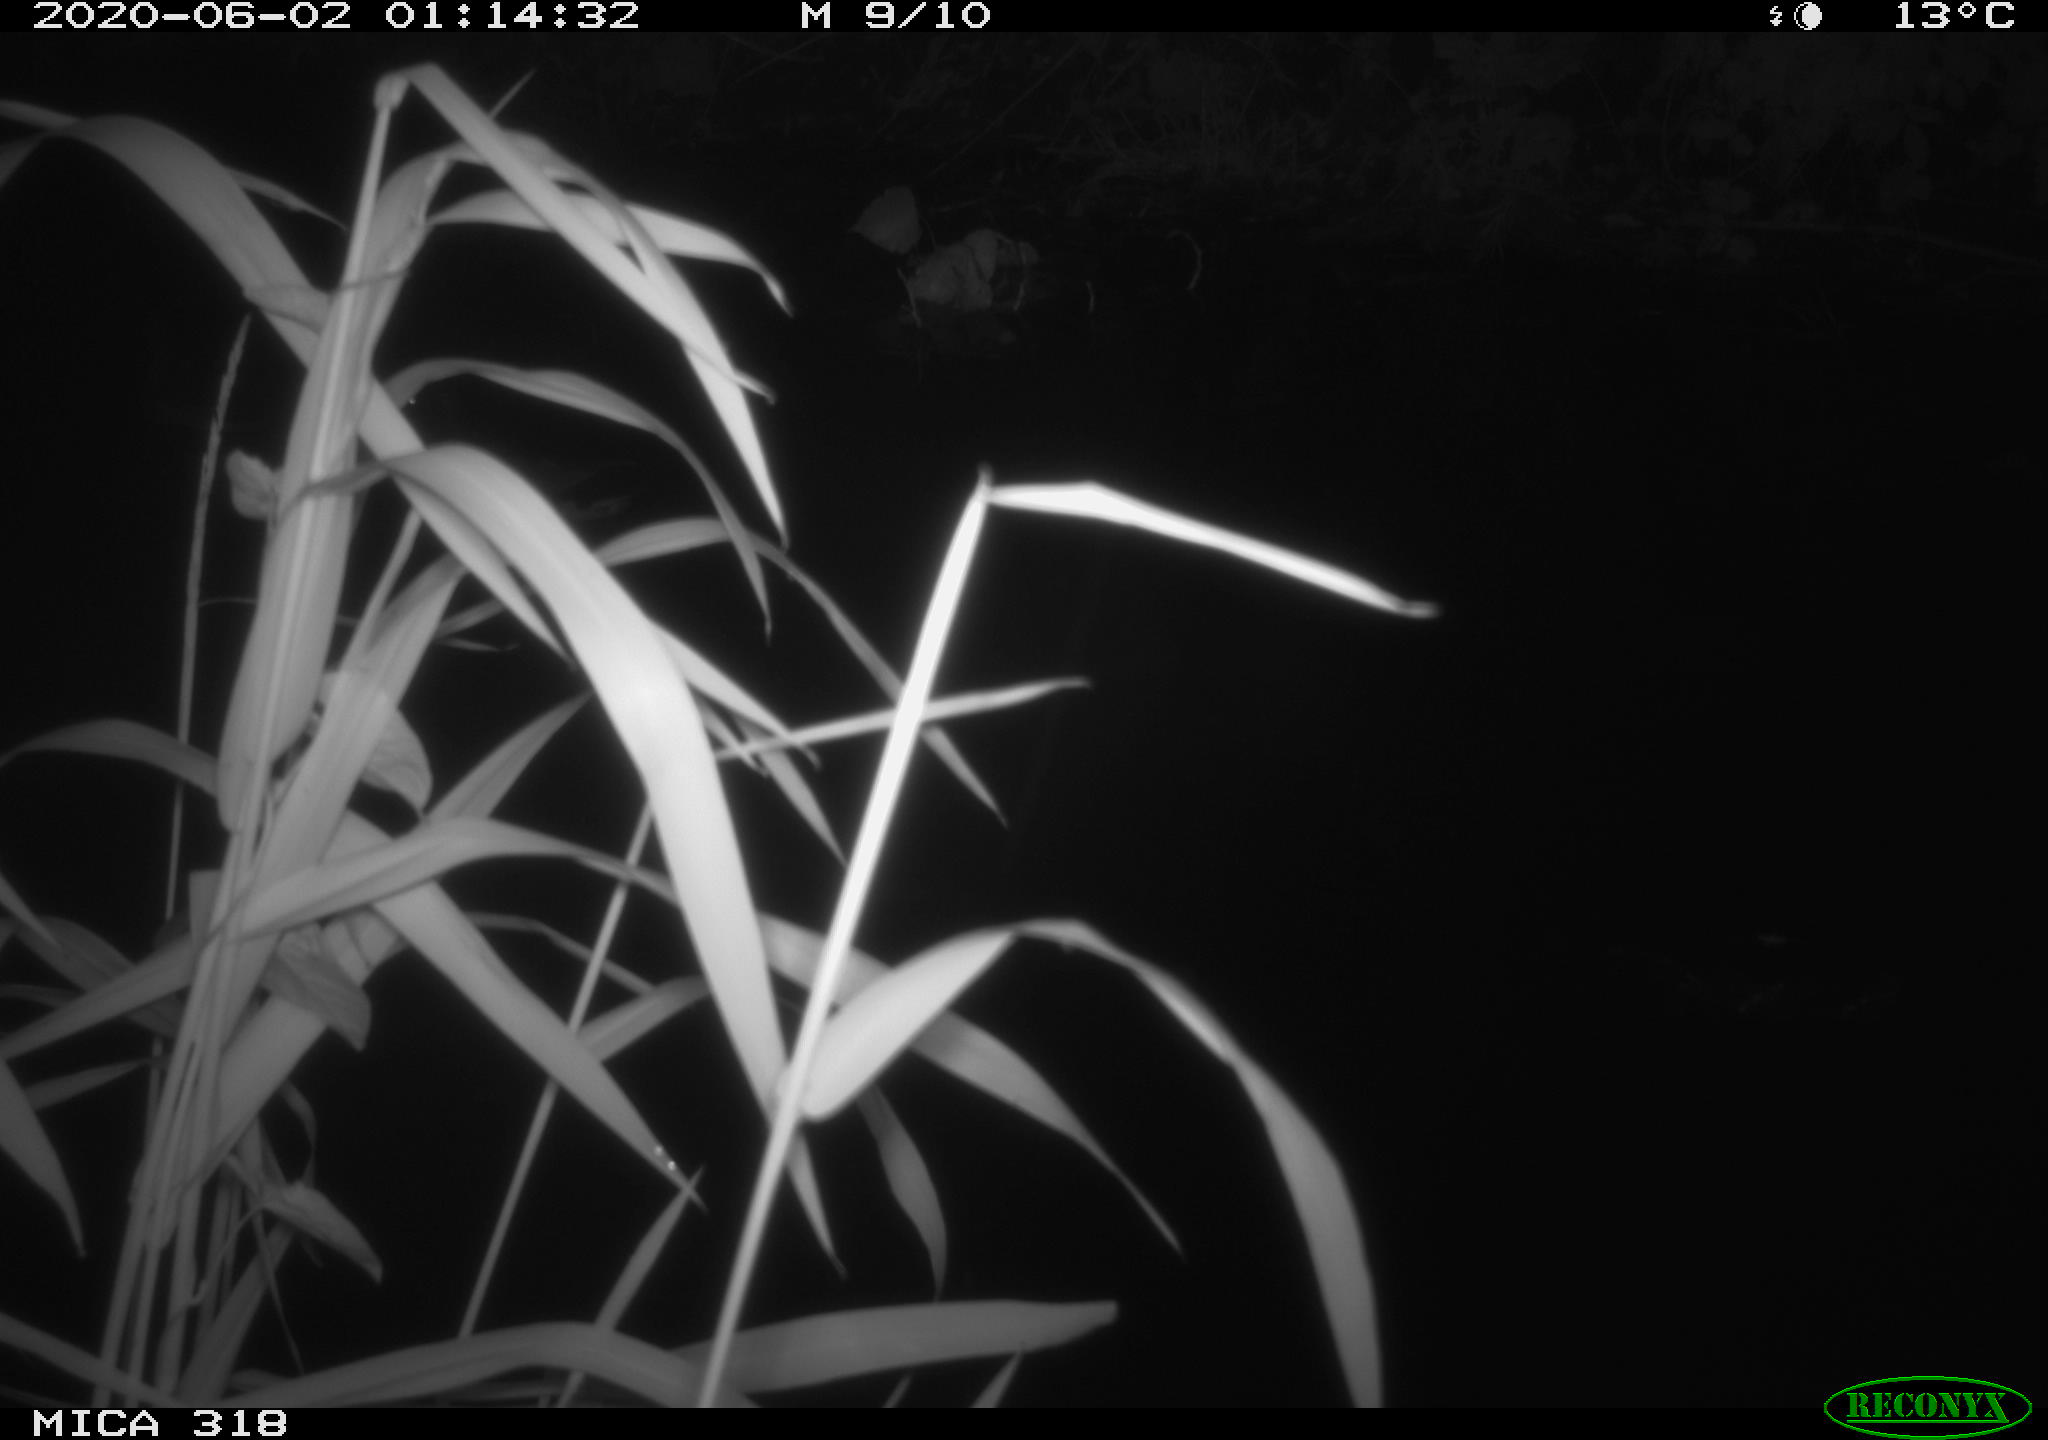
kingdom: Animalia
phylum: Chordata
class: Aves
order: Anseriformes
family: Anatidae
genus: Anas
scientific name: Anas platyrhynchos
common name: Mallard
